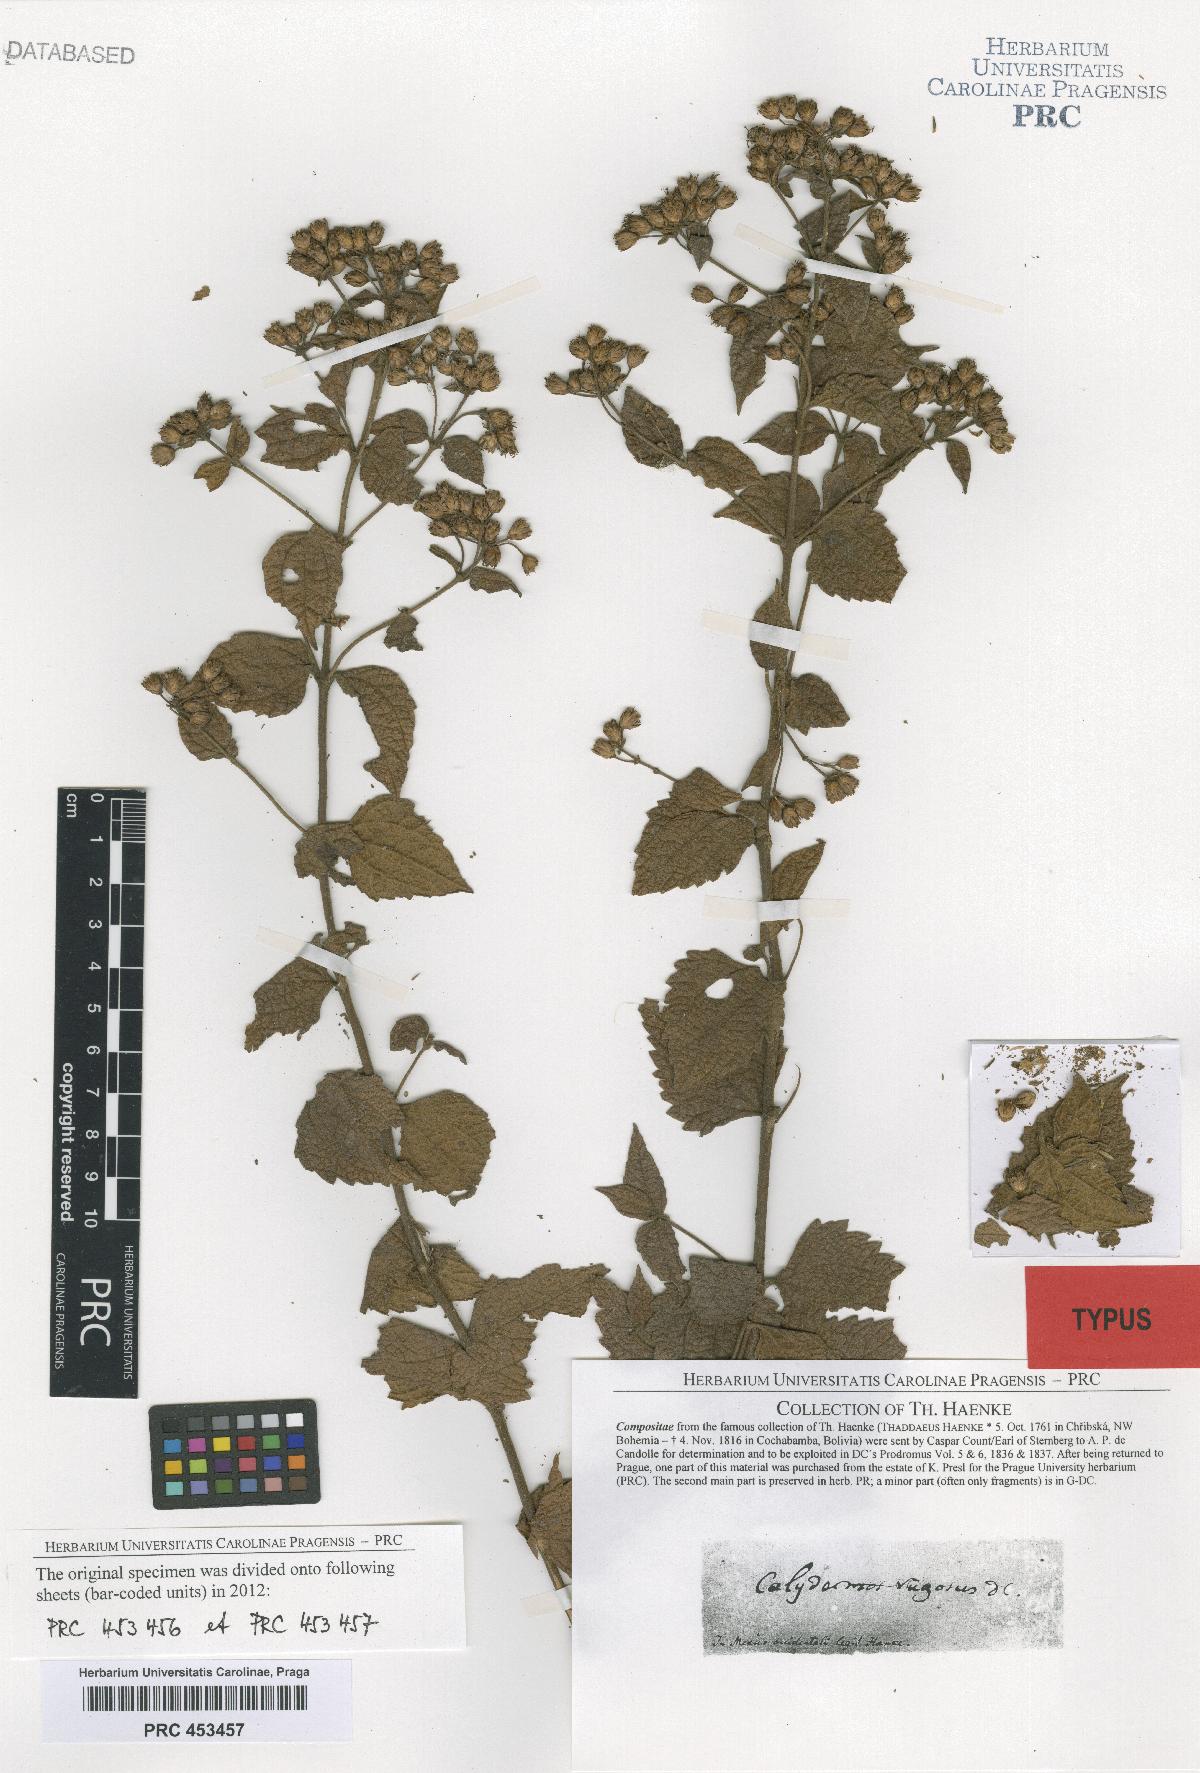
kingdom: Plantae
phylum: Tracheophyta
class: Magnoliopsida
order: Asterales
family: Asteraceae
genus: Calea
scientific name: Calea ternifolia
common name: Mexican calea
